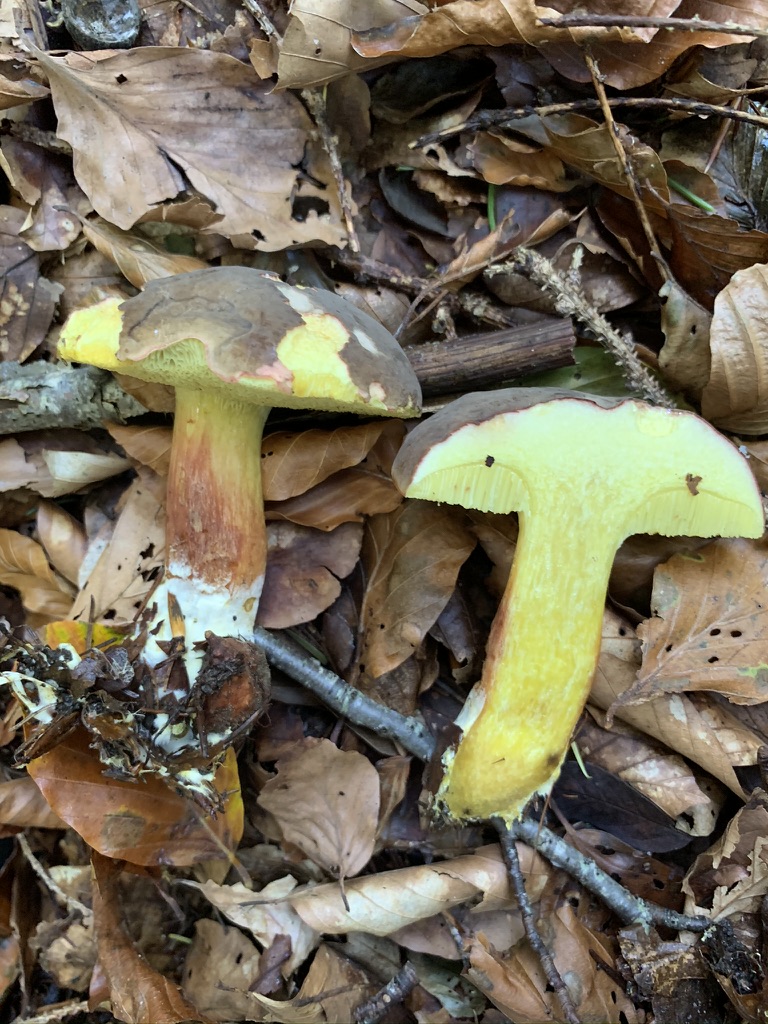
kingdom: Fungi
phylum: Basidiomycota
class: Agaricomycetes
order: Boletales
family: Boletaceae
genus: Xerocomellus
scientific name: Xerocomellus pruinatus
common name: dugget rørhat
